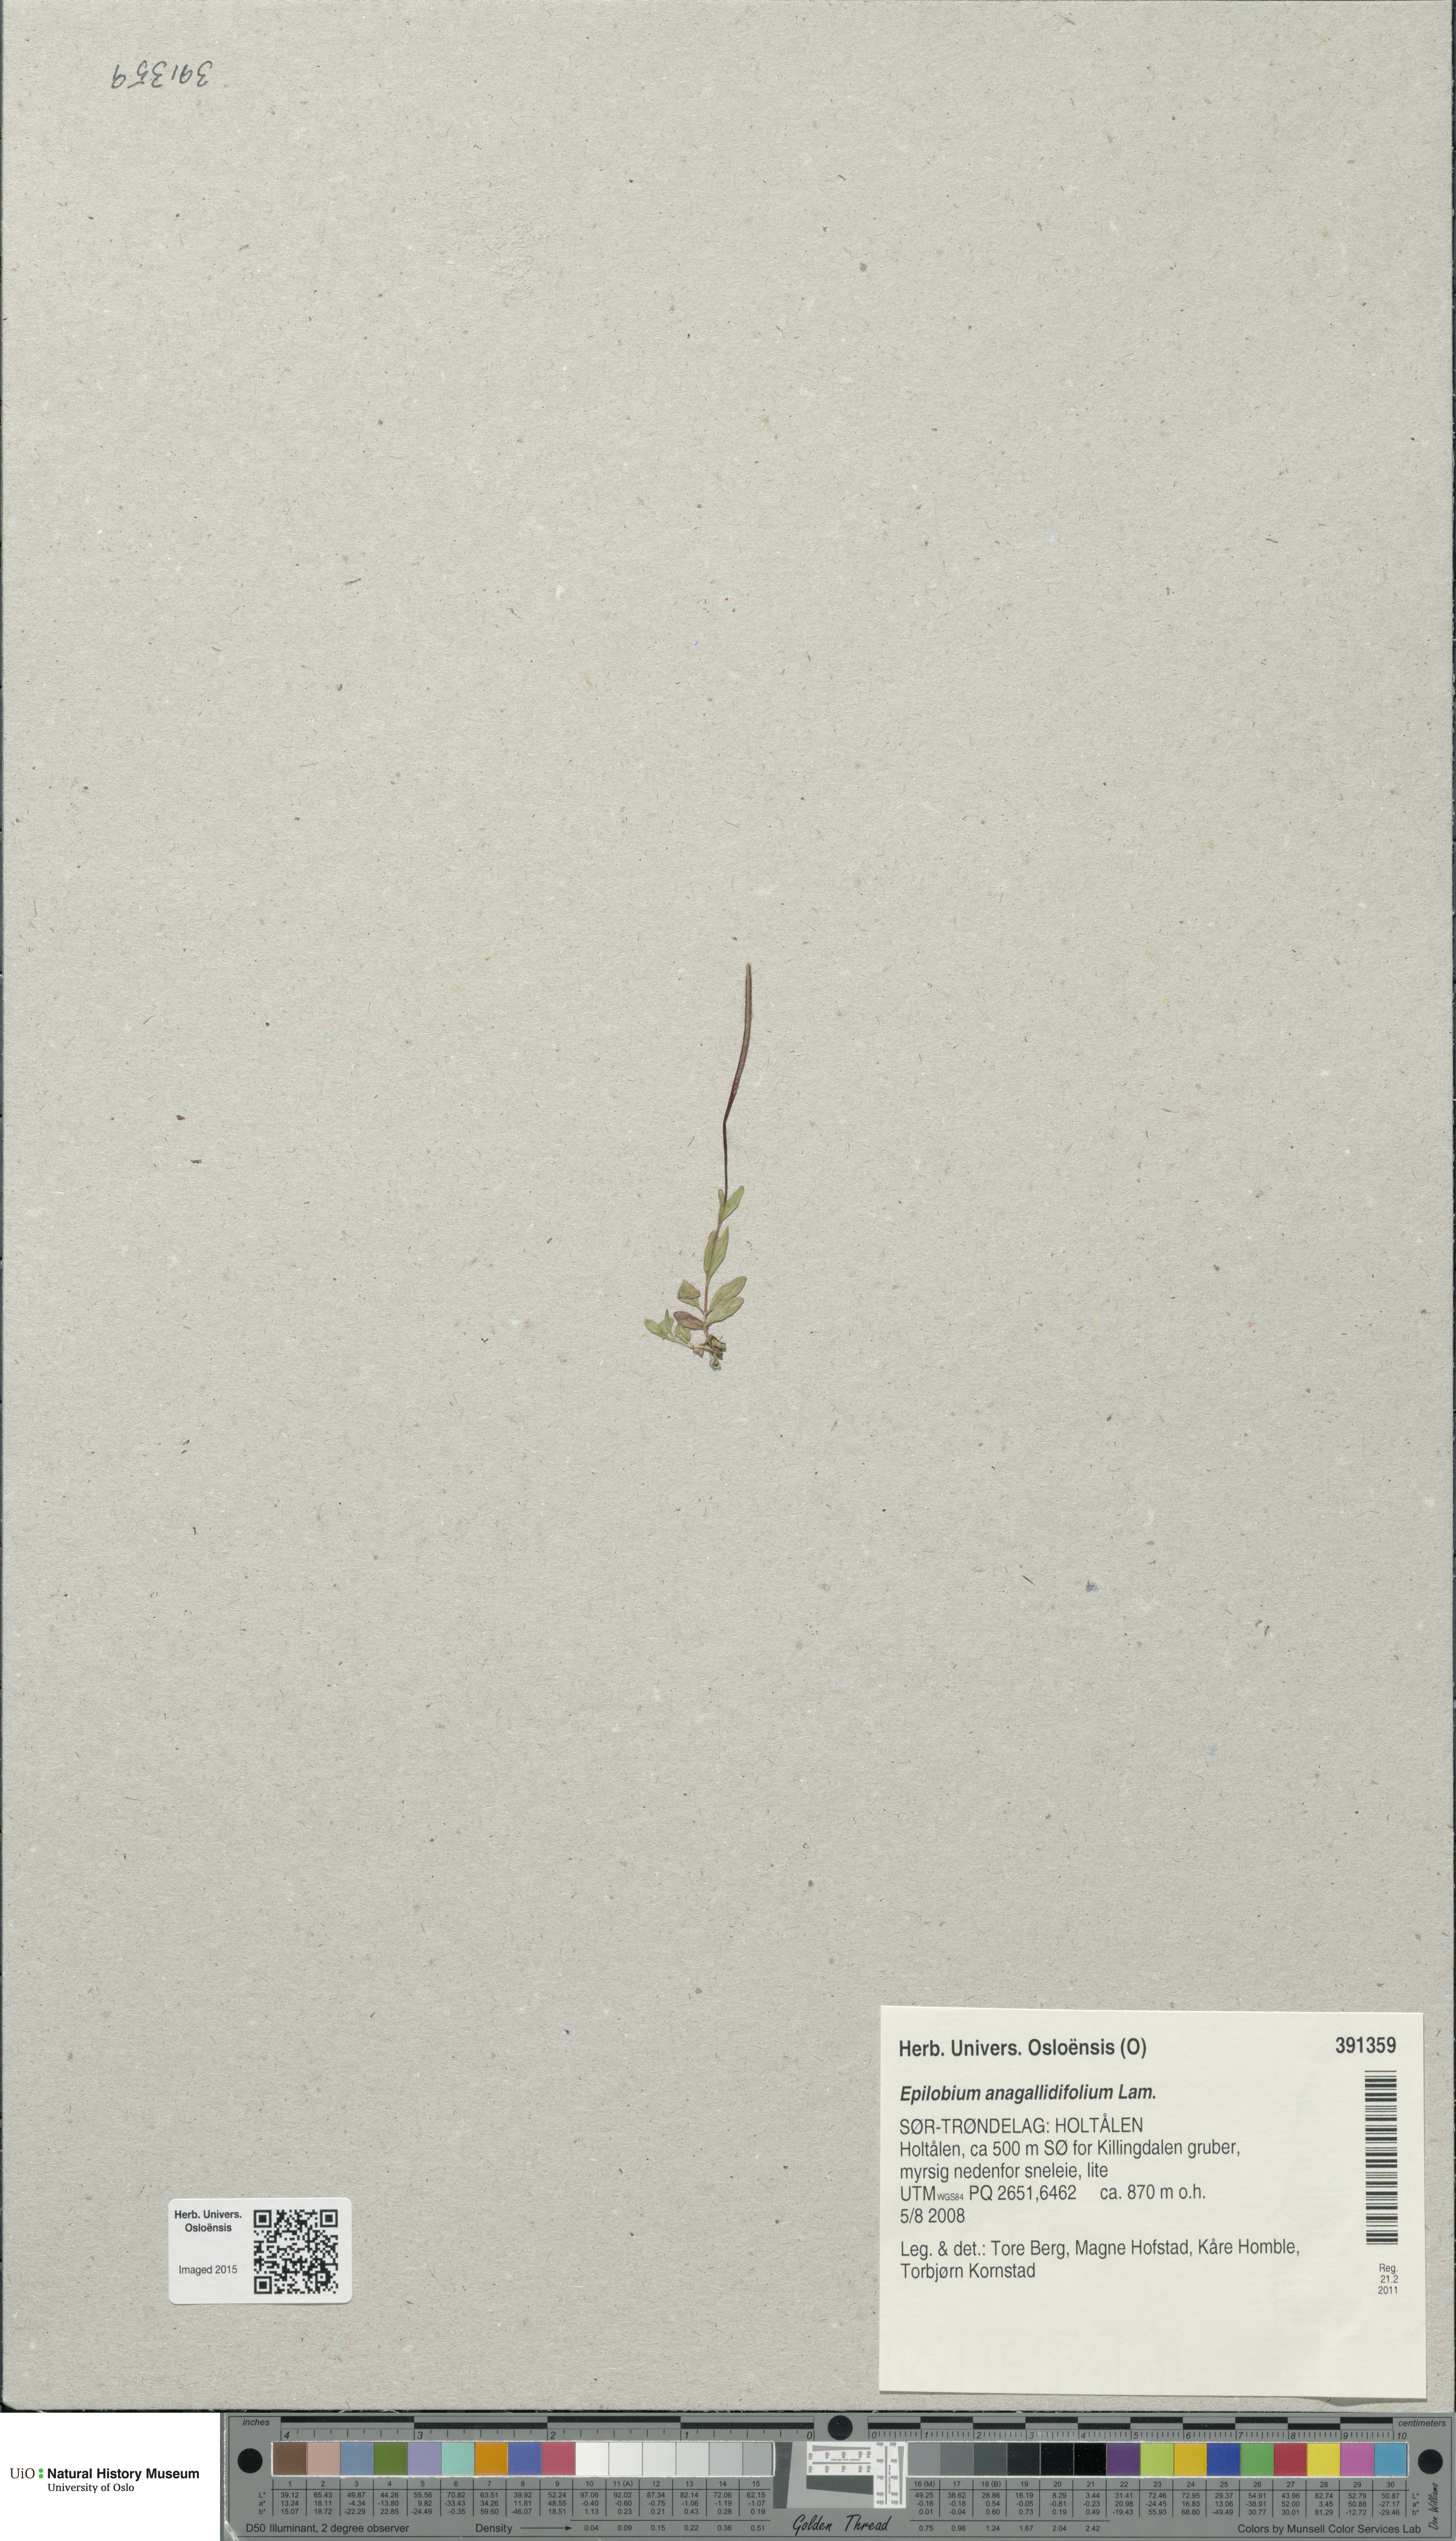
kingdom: Plantae
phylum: Tracheophyta
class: Magnoliopsida
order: Myrtales
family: Onagraceae
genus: Epilobium
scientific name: Epilobium anagallidifolium
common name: Alpine willowherb
